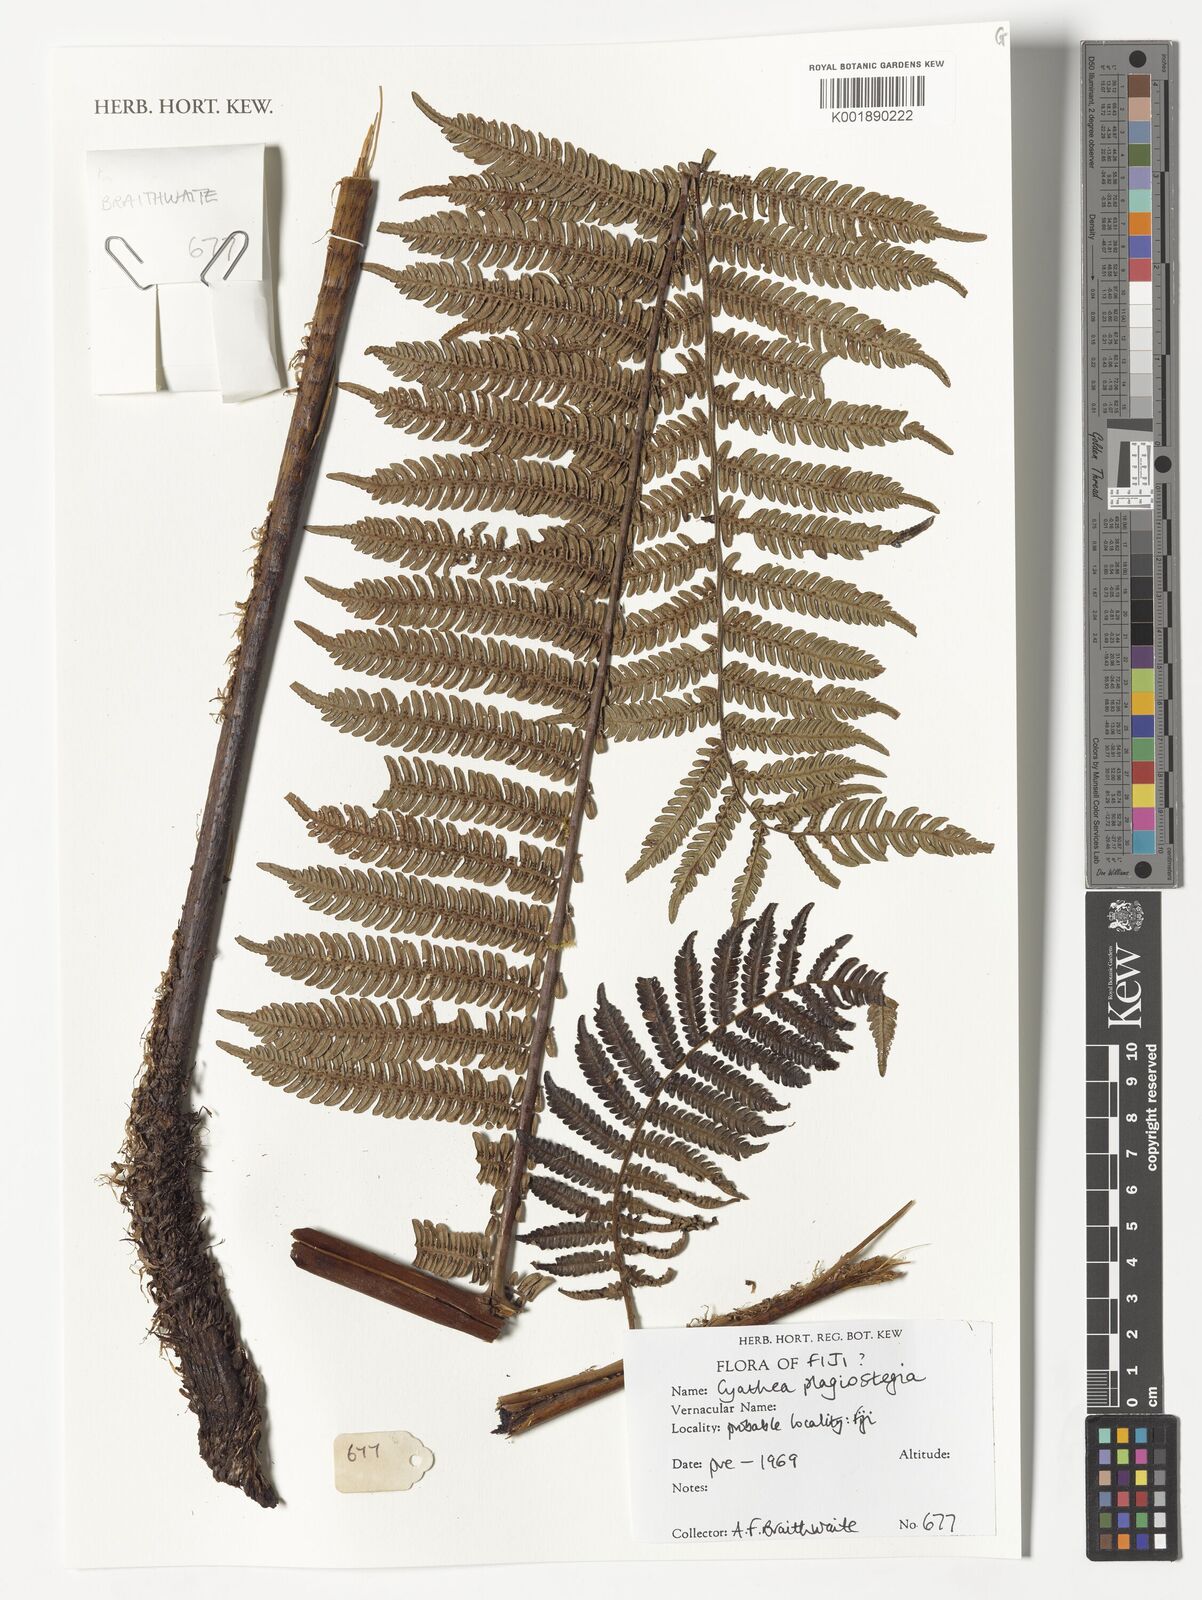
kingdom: Plantae
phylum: Tracheophyta
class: Polypodiopsida
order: Cyatheales
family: Cyatheaceae
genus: Sphaeropteris
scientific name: Sphaeropteris samoensis
